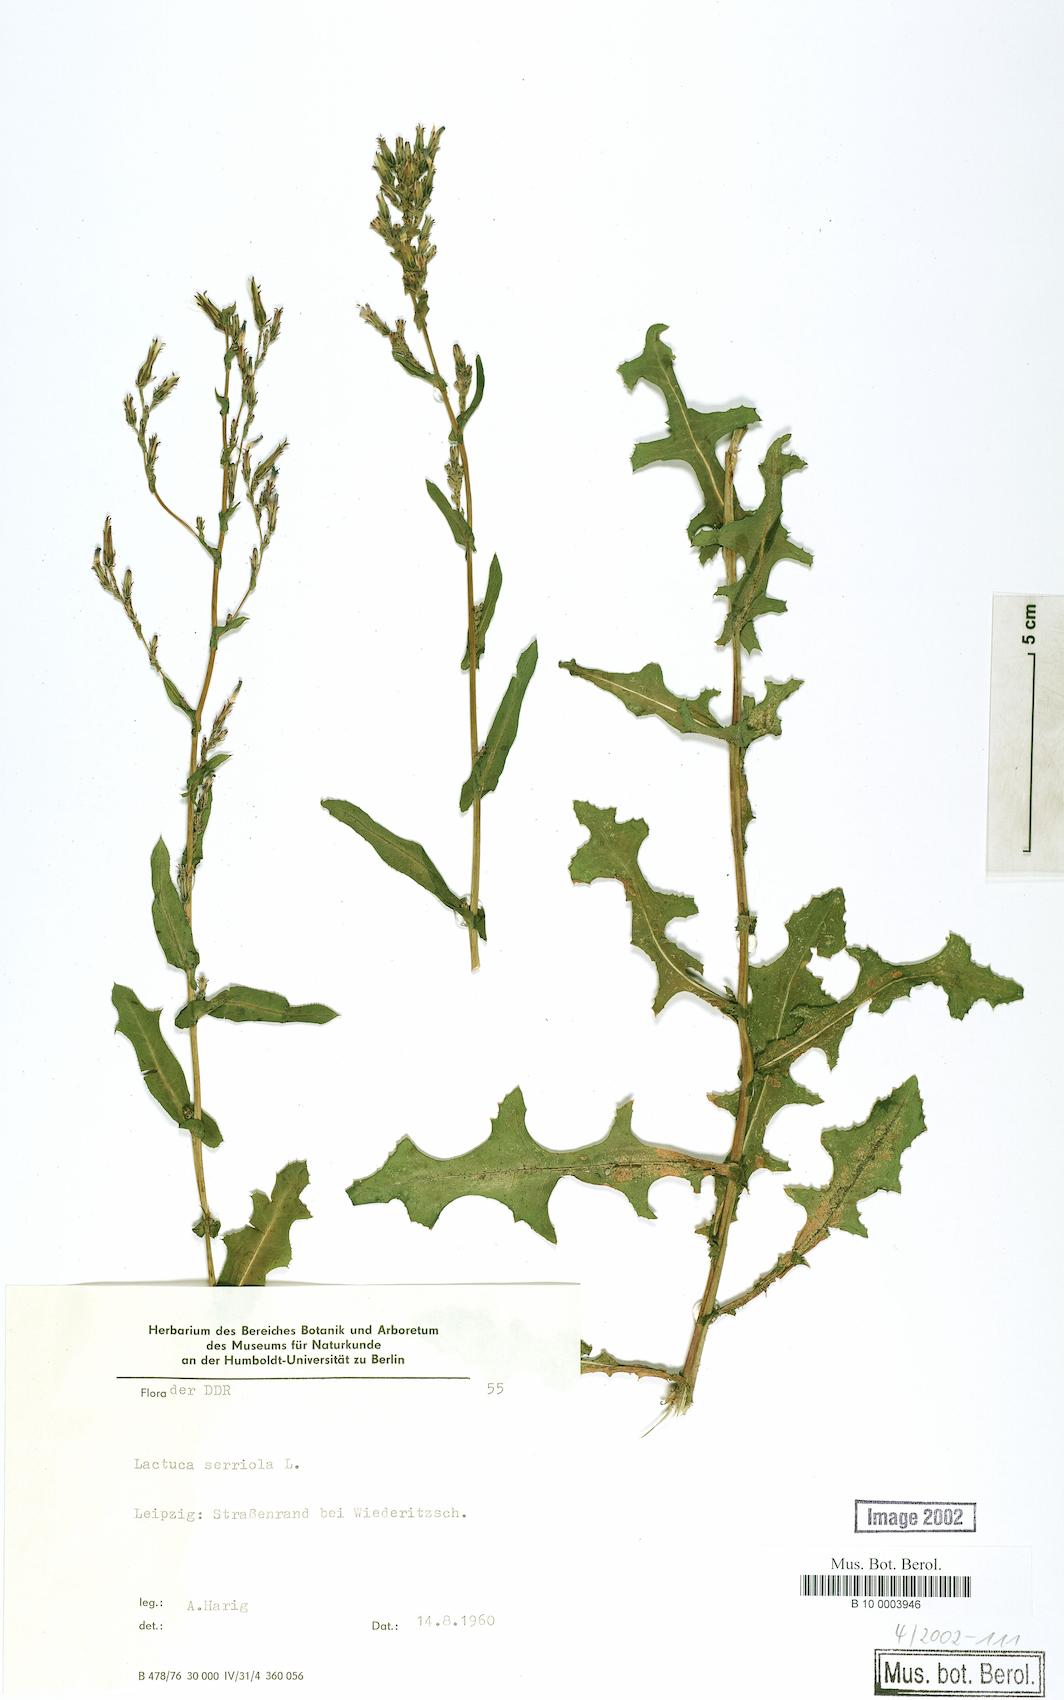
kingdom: Plantae
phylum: Tracheophyta
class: Magnoliopsida
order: Asterales
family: Asteraceae
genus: Lactuca
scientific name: Lactuca serriola
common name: Prickly lettuce
